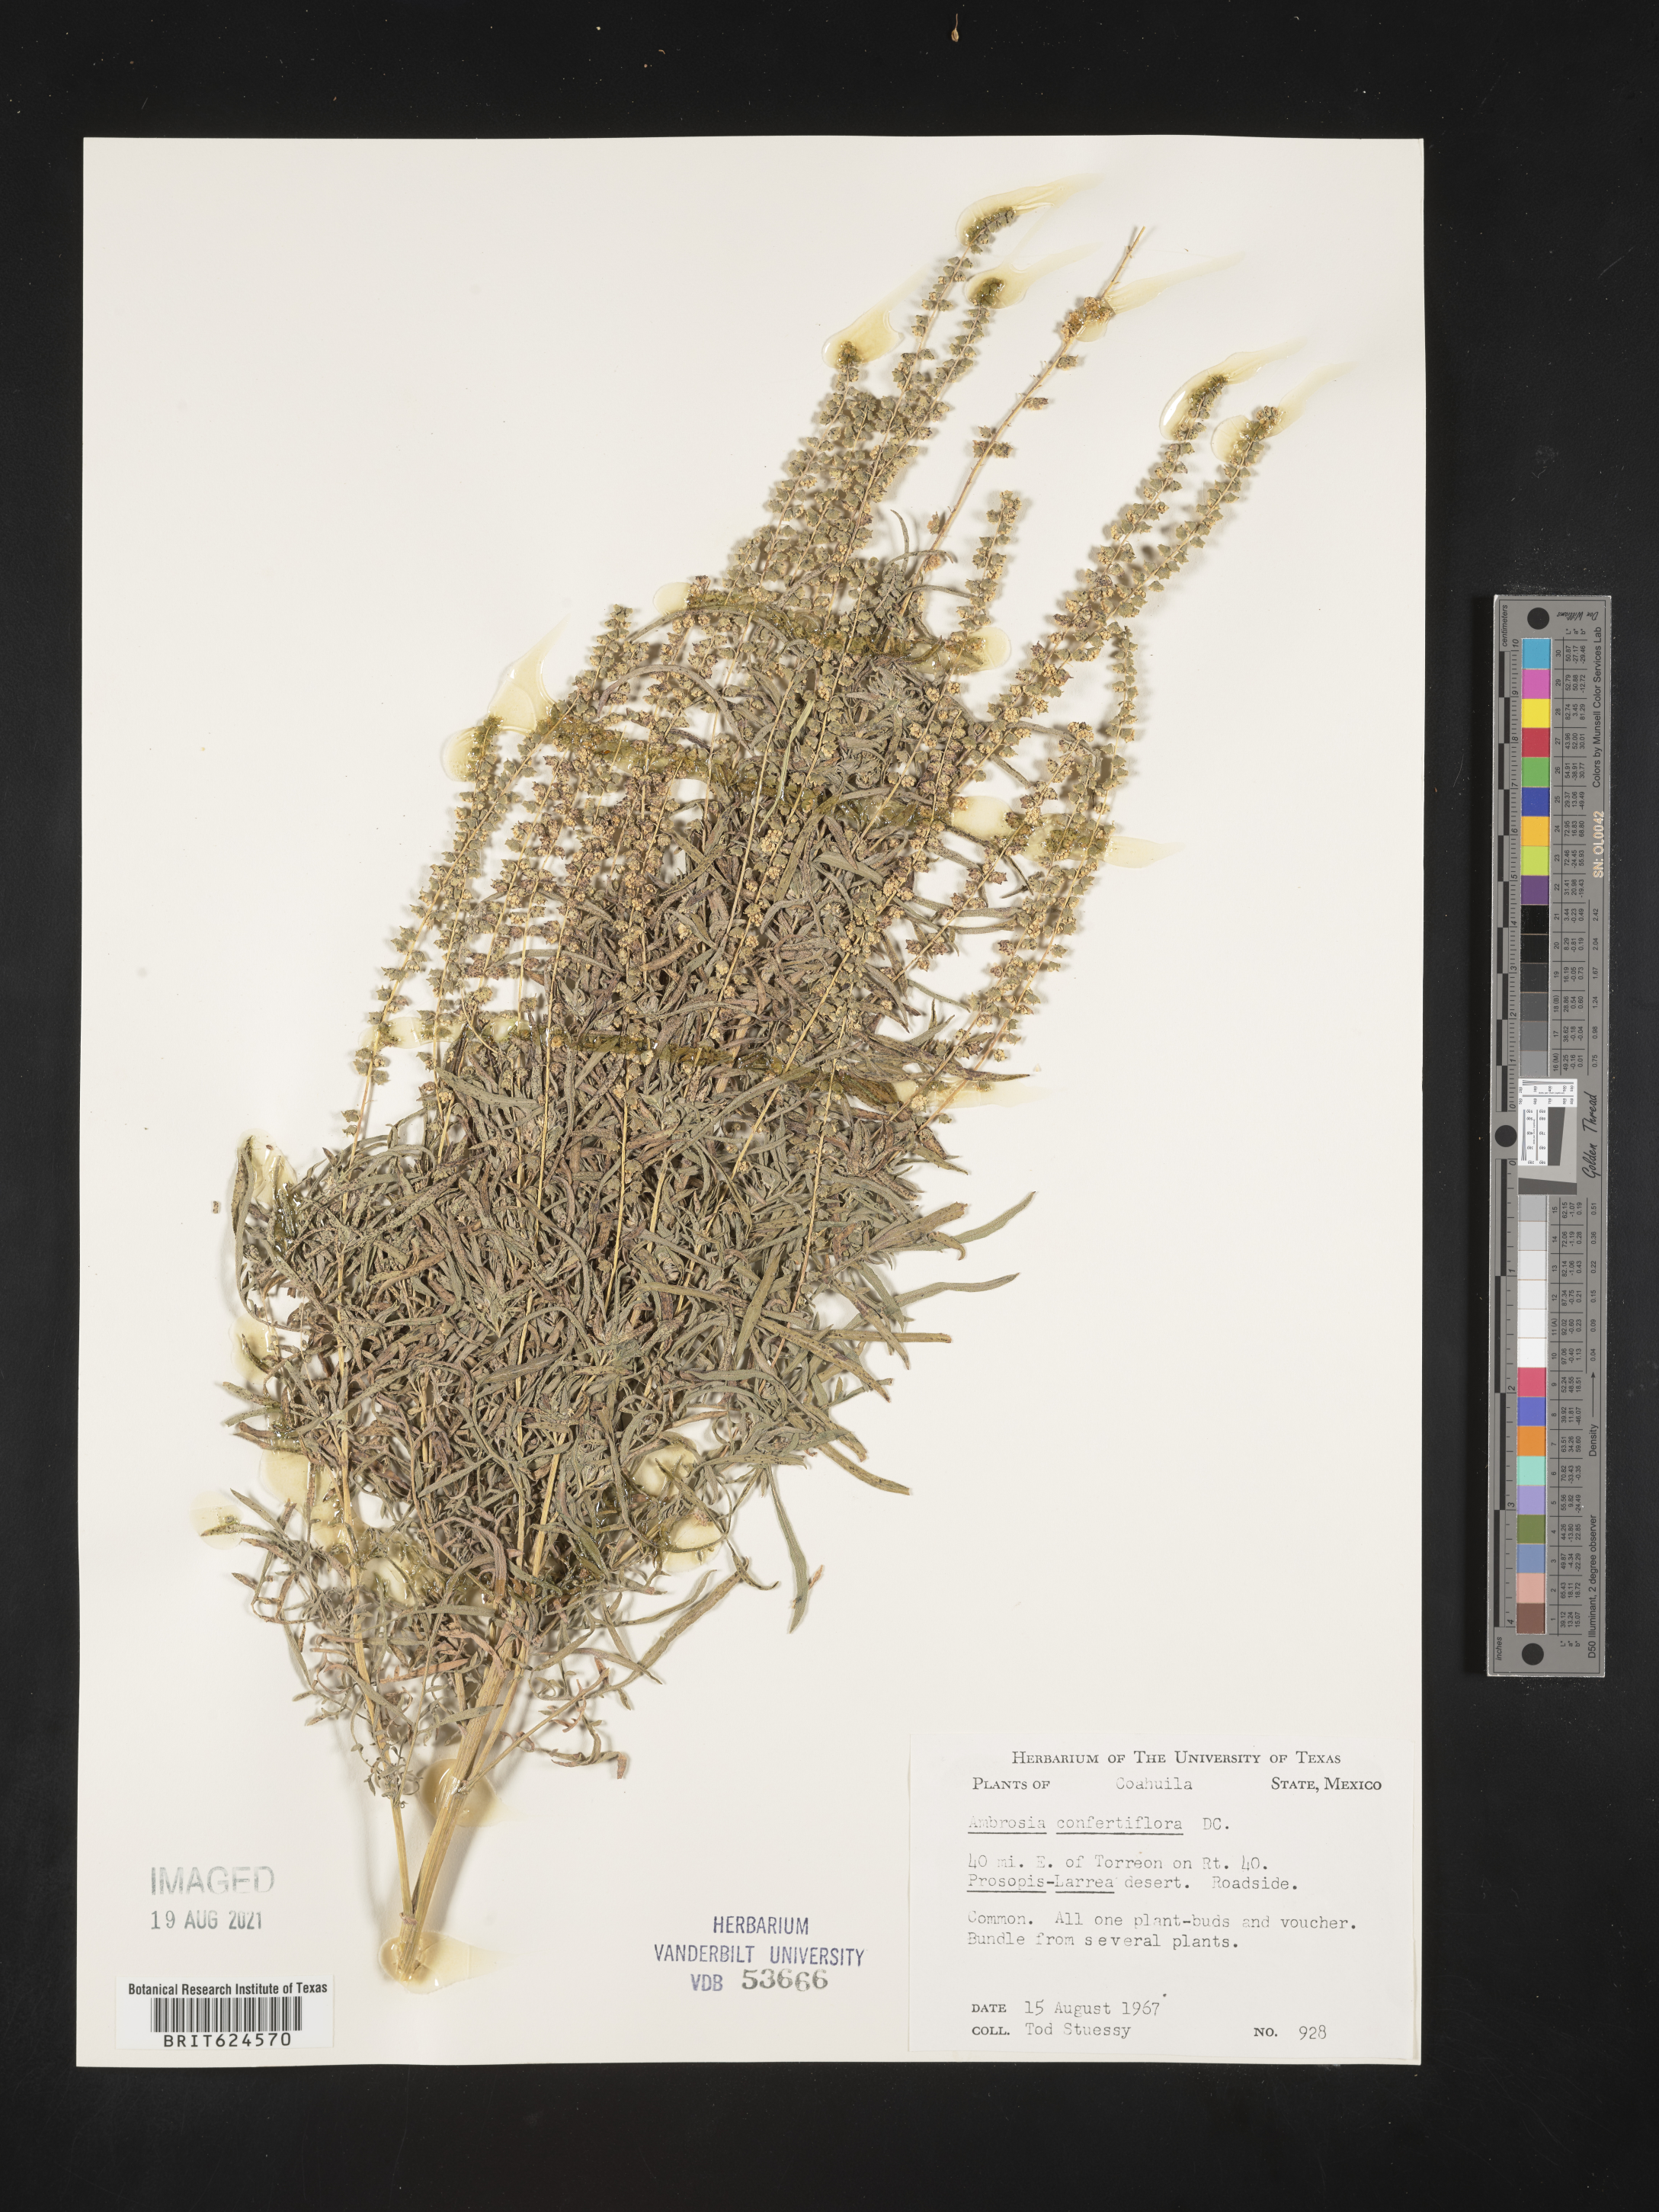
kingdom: Plantae
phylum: Tracheophyta
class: Magnoliopsida
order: Asterales
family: Asteraceae
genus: Ambrosia
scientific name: Ambrosia
